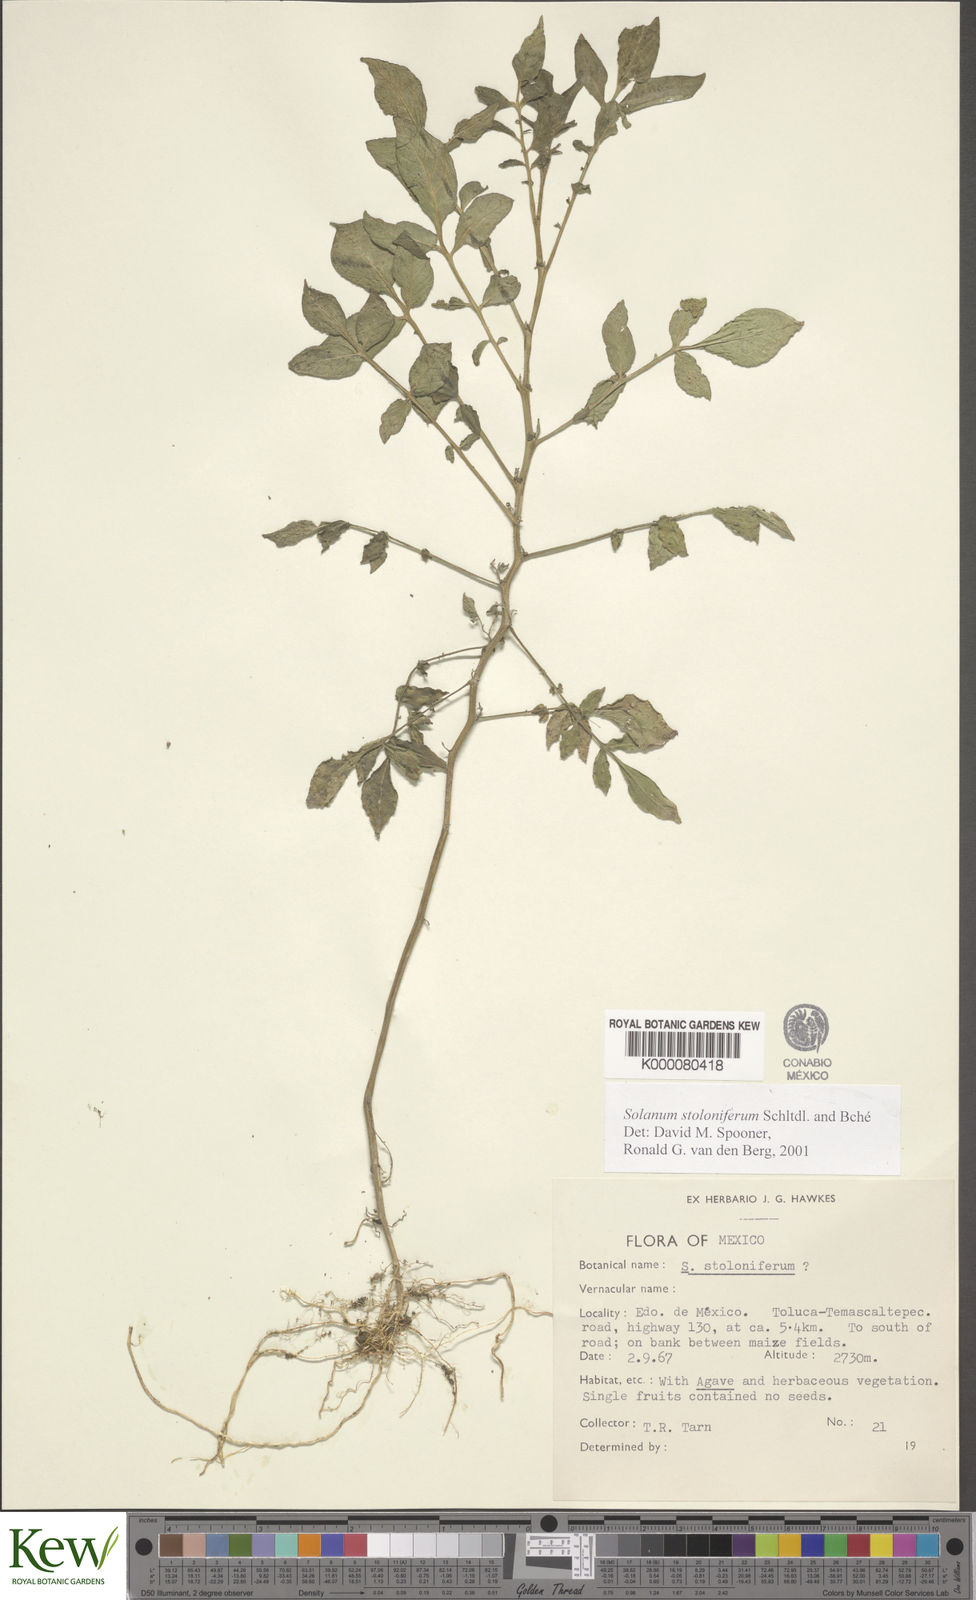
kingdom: Plantae
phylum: Tracheophyta
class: Magnoliopsida
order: Solanales
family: Solanaceae
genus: Solanum
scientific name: Solanum stoloniferum
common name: Fendler's nighshade
